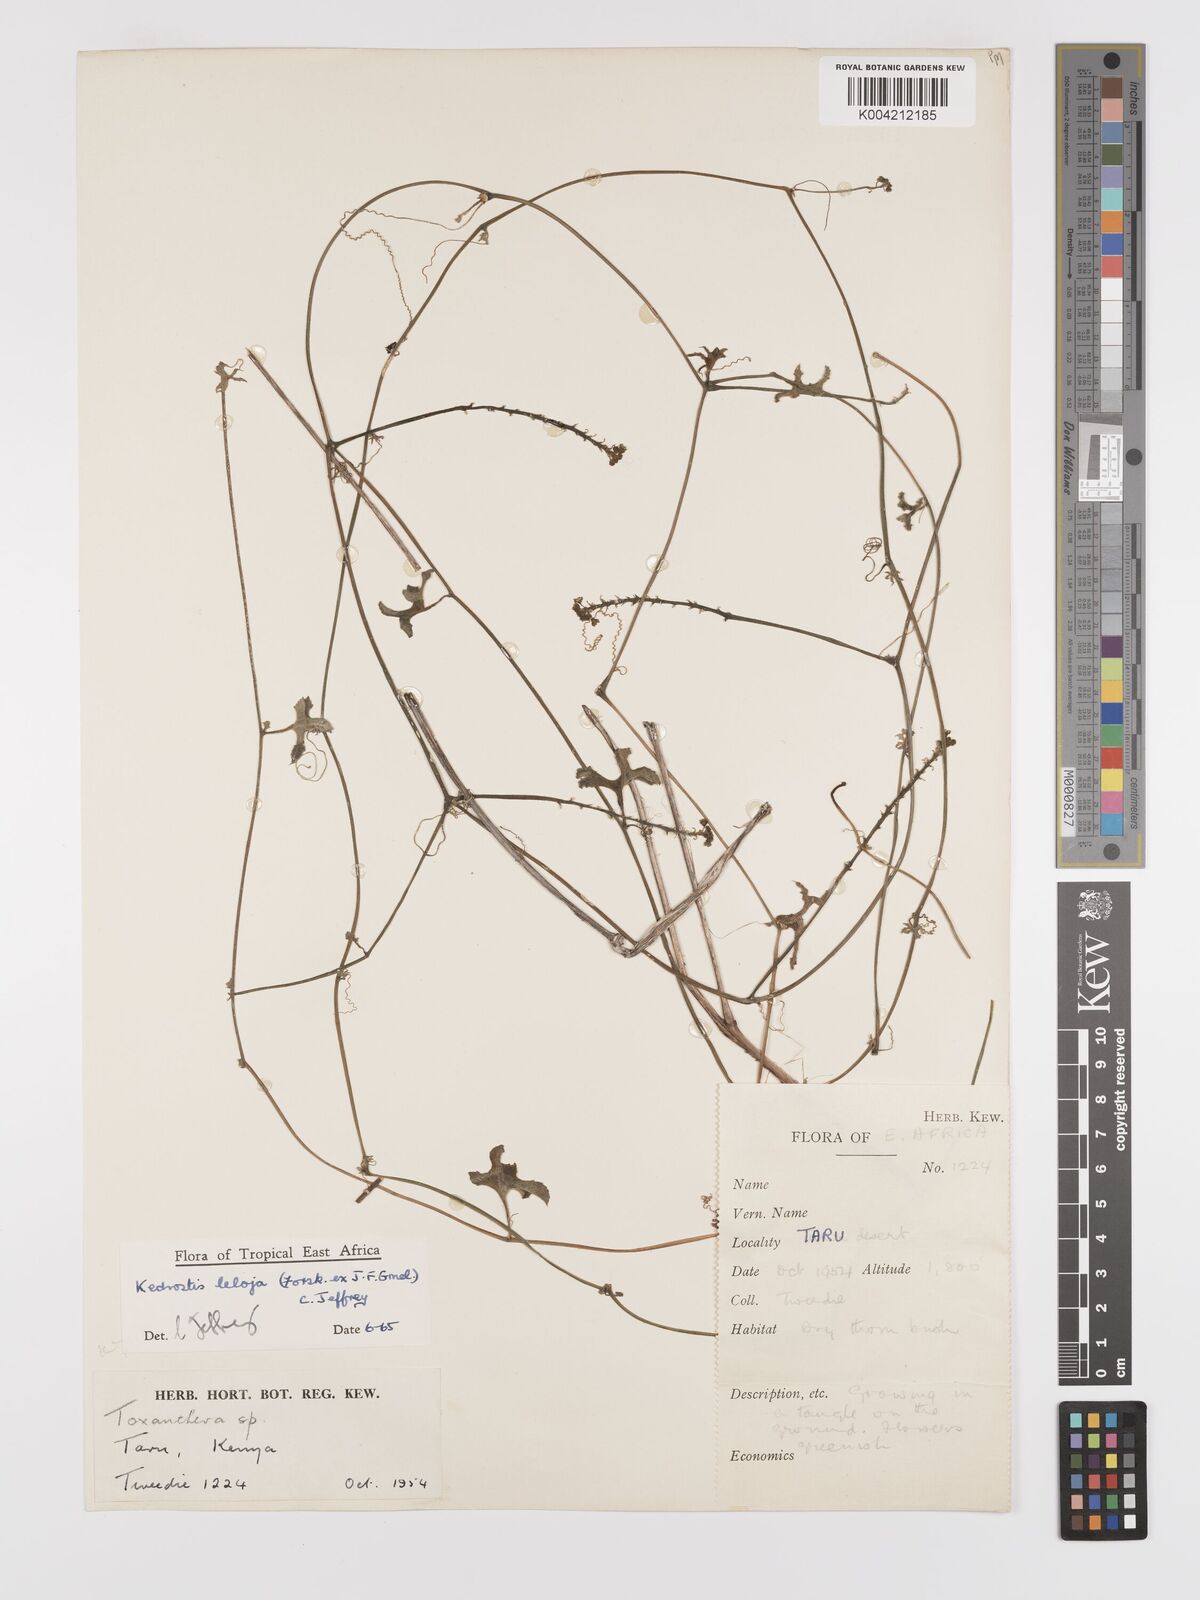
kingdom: Plantae
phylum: Tracheophyta
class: Magnoliopsida
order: Cucurbitales
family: Cucurbitaceae
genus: Kedrostis
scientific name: Kedrostis abdallae
